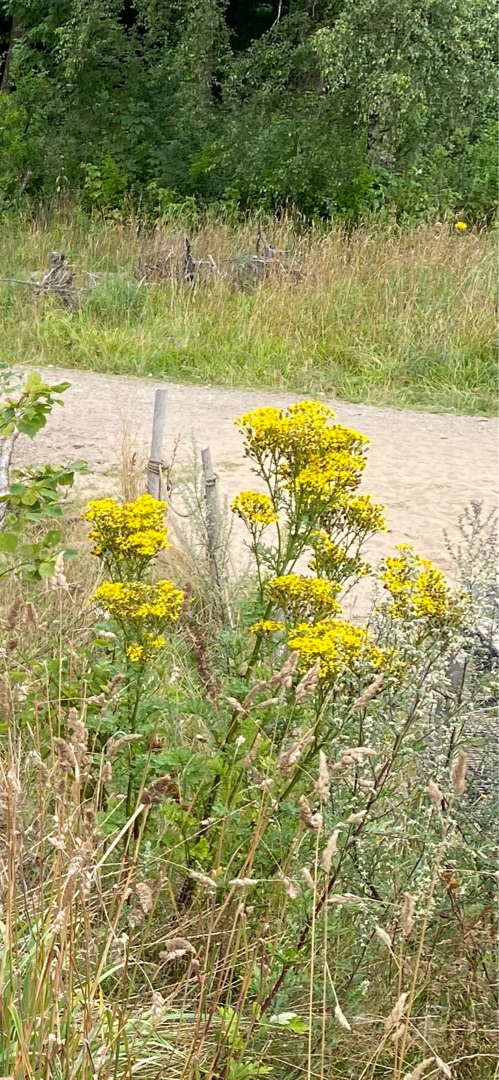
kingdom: Plantae
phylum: Tracheophyta
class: Magnoliopsida
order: Asterales
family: Asteraceae
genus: Jacobaea
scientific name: Jacobaea vulgaris
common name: Eng-brandbæger
